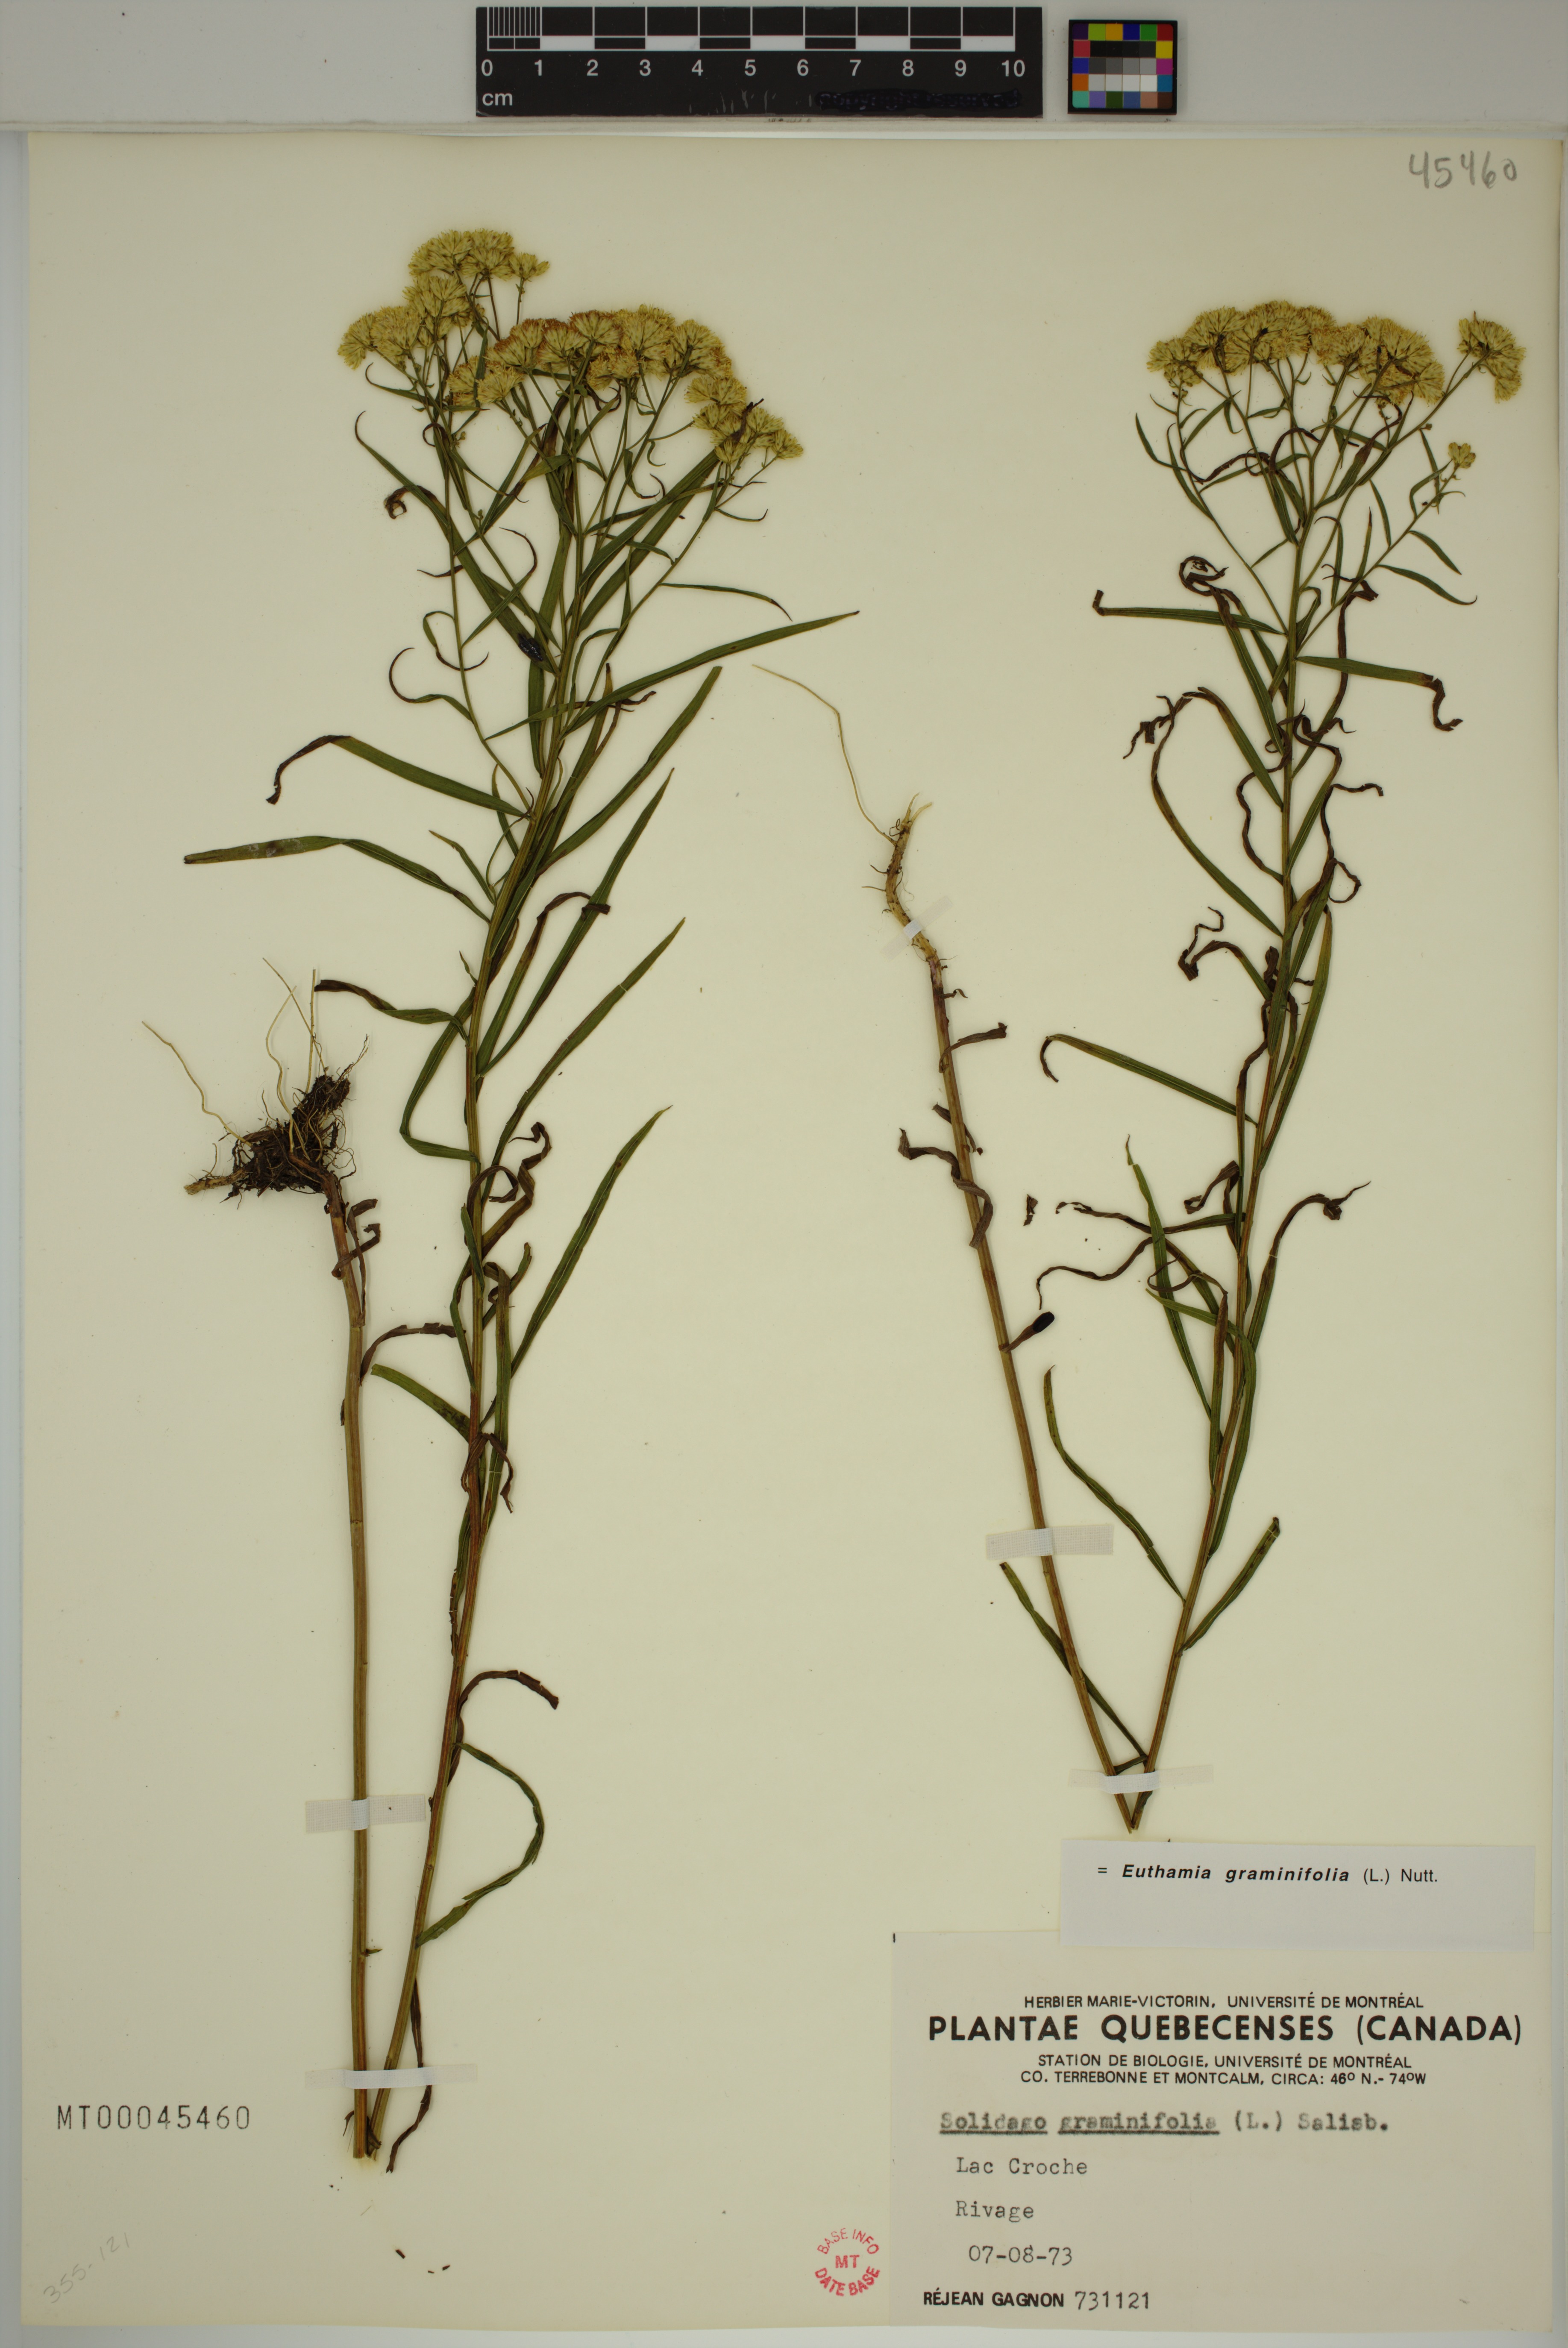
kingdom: Plantae
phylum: Tracheophyta
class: Magnoliopsida
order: Asterales
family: Asteraceae
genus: Euthamia
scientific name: Euthamia graminifolia
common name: Common goldentop
